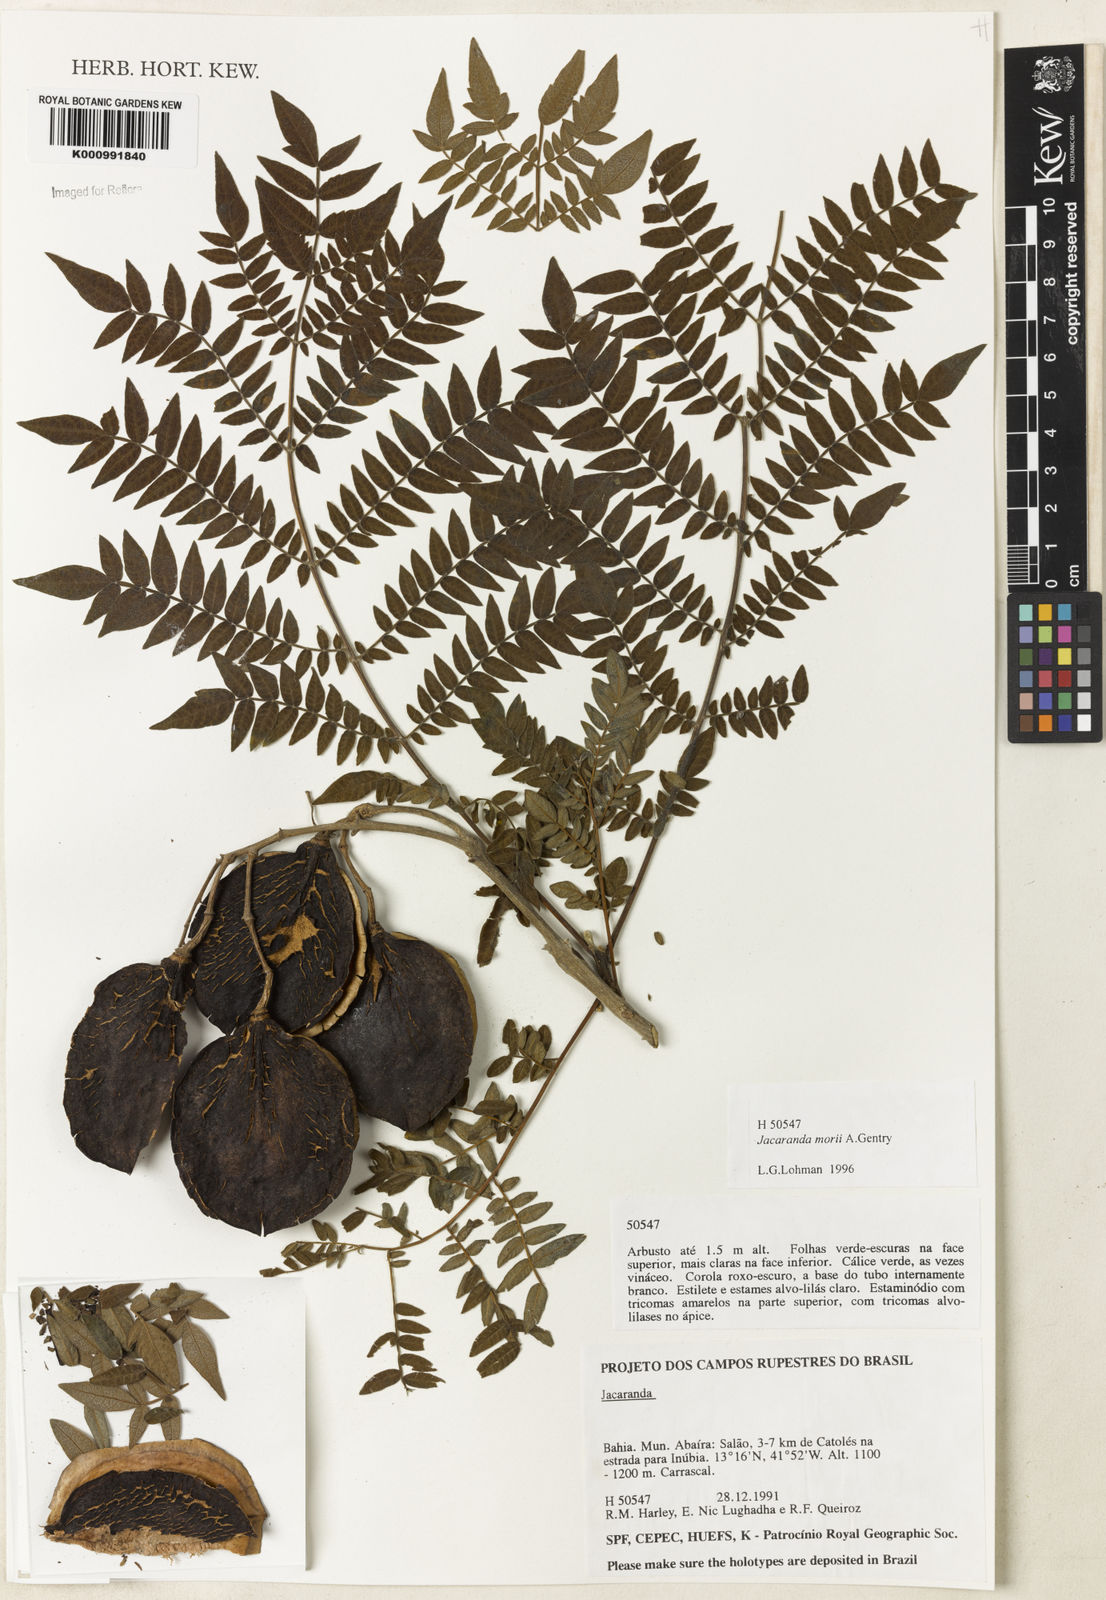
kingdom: Plantae
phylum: Tracheophyta
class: Magnoliopsida
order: Lamiales
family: Bignoniaceae
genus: Jacaranda
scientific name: Jacaranda ulei
